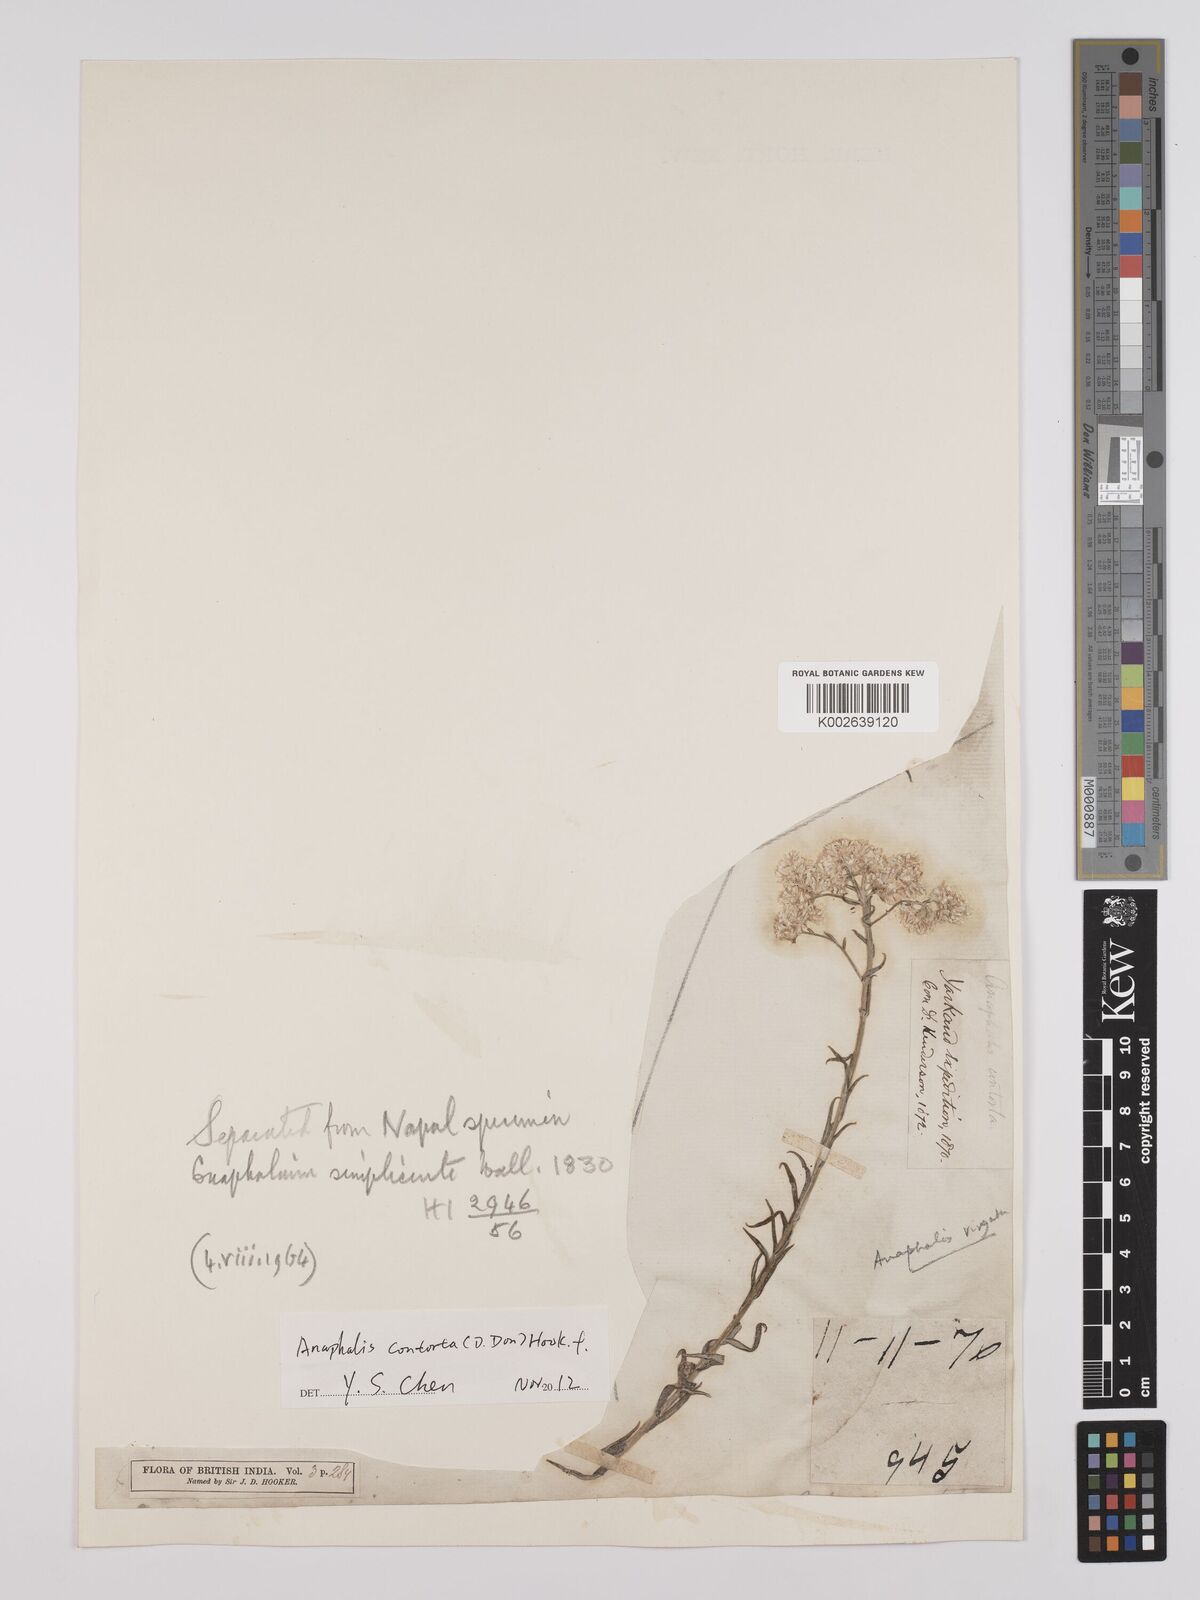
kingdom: Plantae
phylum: Tracheophyta
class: Magnoliopsida
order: Asterales
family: Asteraceae
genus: Anaphalis
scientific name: Anaphalis contorta
